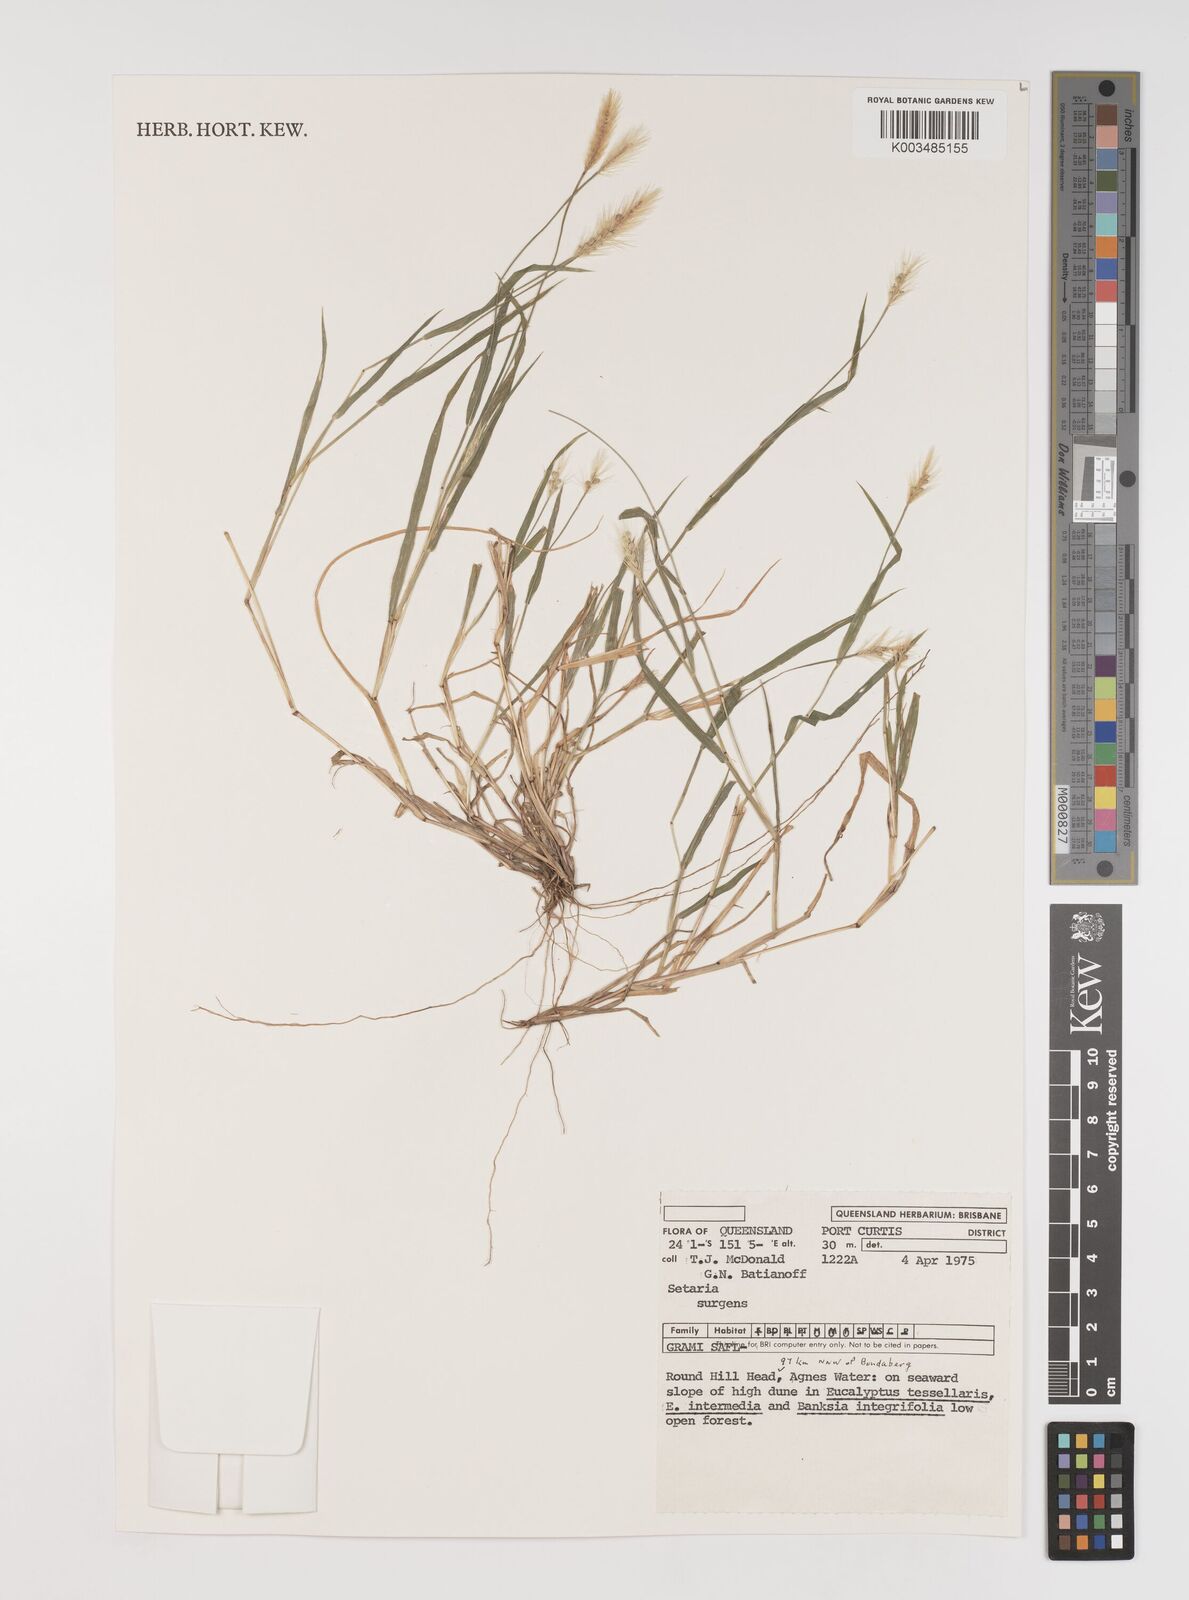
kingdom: Plantae
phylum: Tracheophyta
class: Liliopsida
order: Poales
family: Poaceae
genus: Setaria
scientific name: Setaria apiculata
